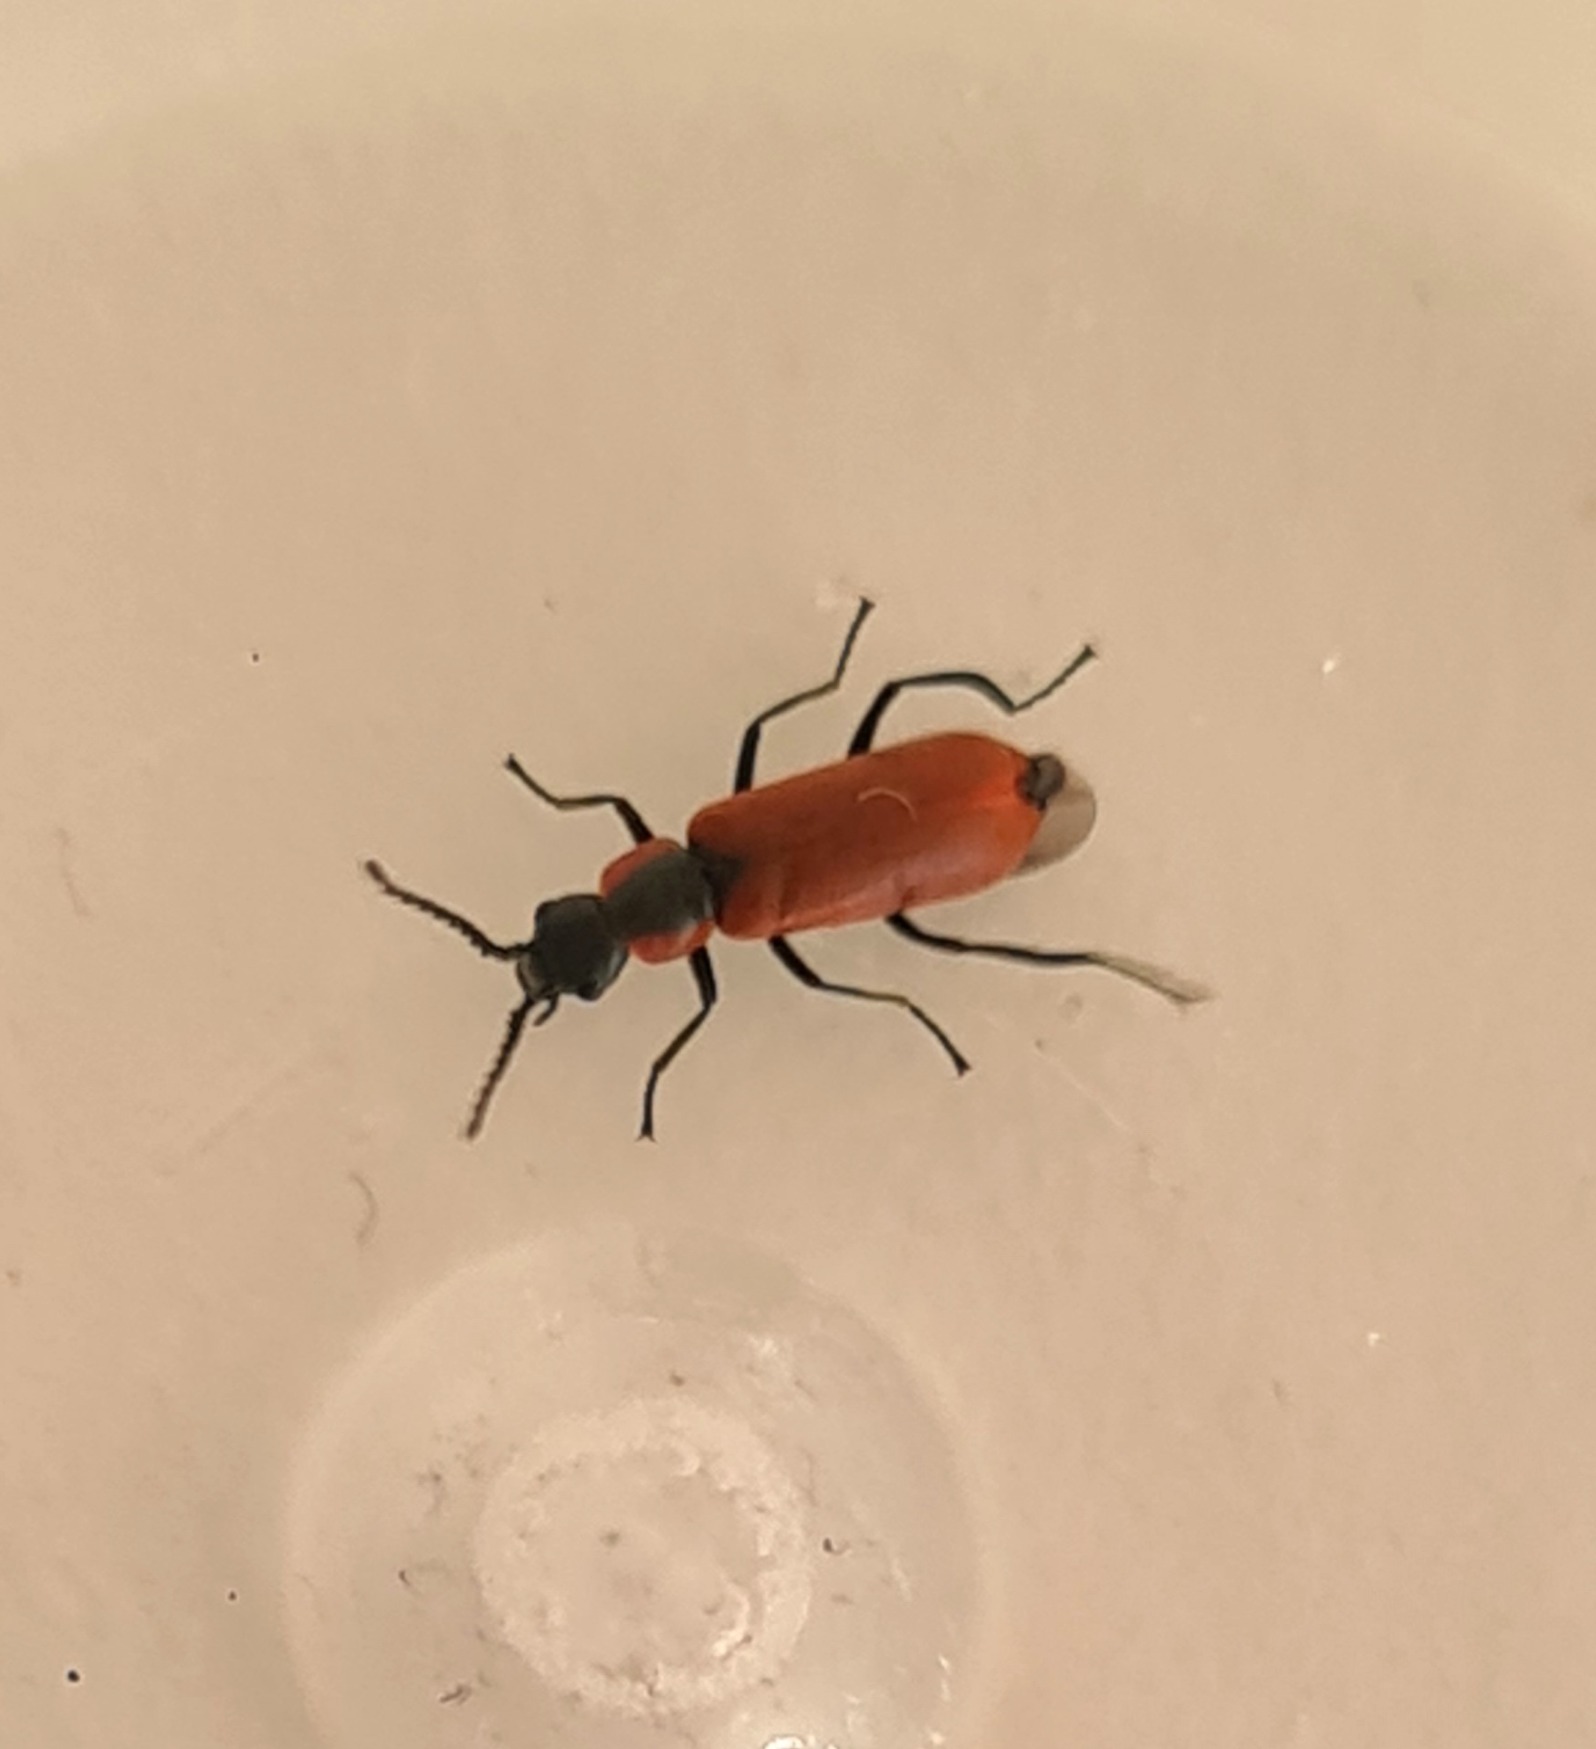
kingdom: Animalia
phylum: Arthropoda
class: Insecta
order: Coleoptera
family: Melyridae
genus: Anthocomus
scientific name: Anthocomus rufus
